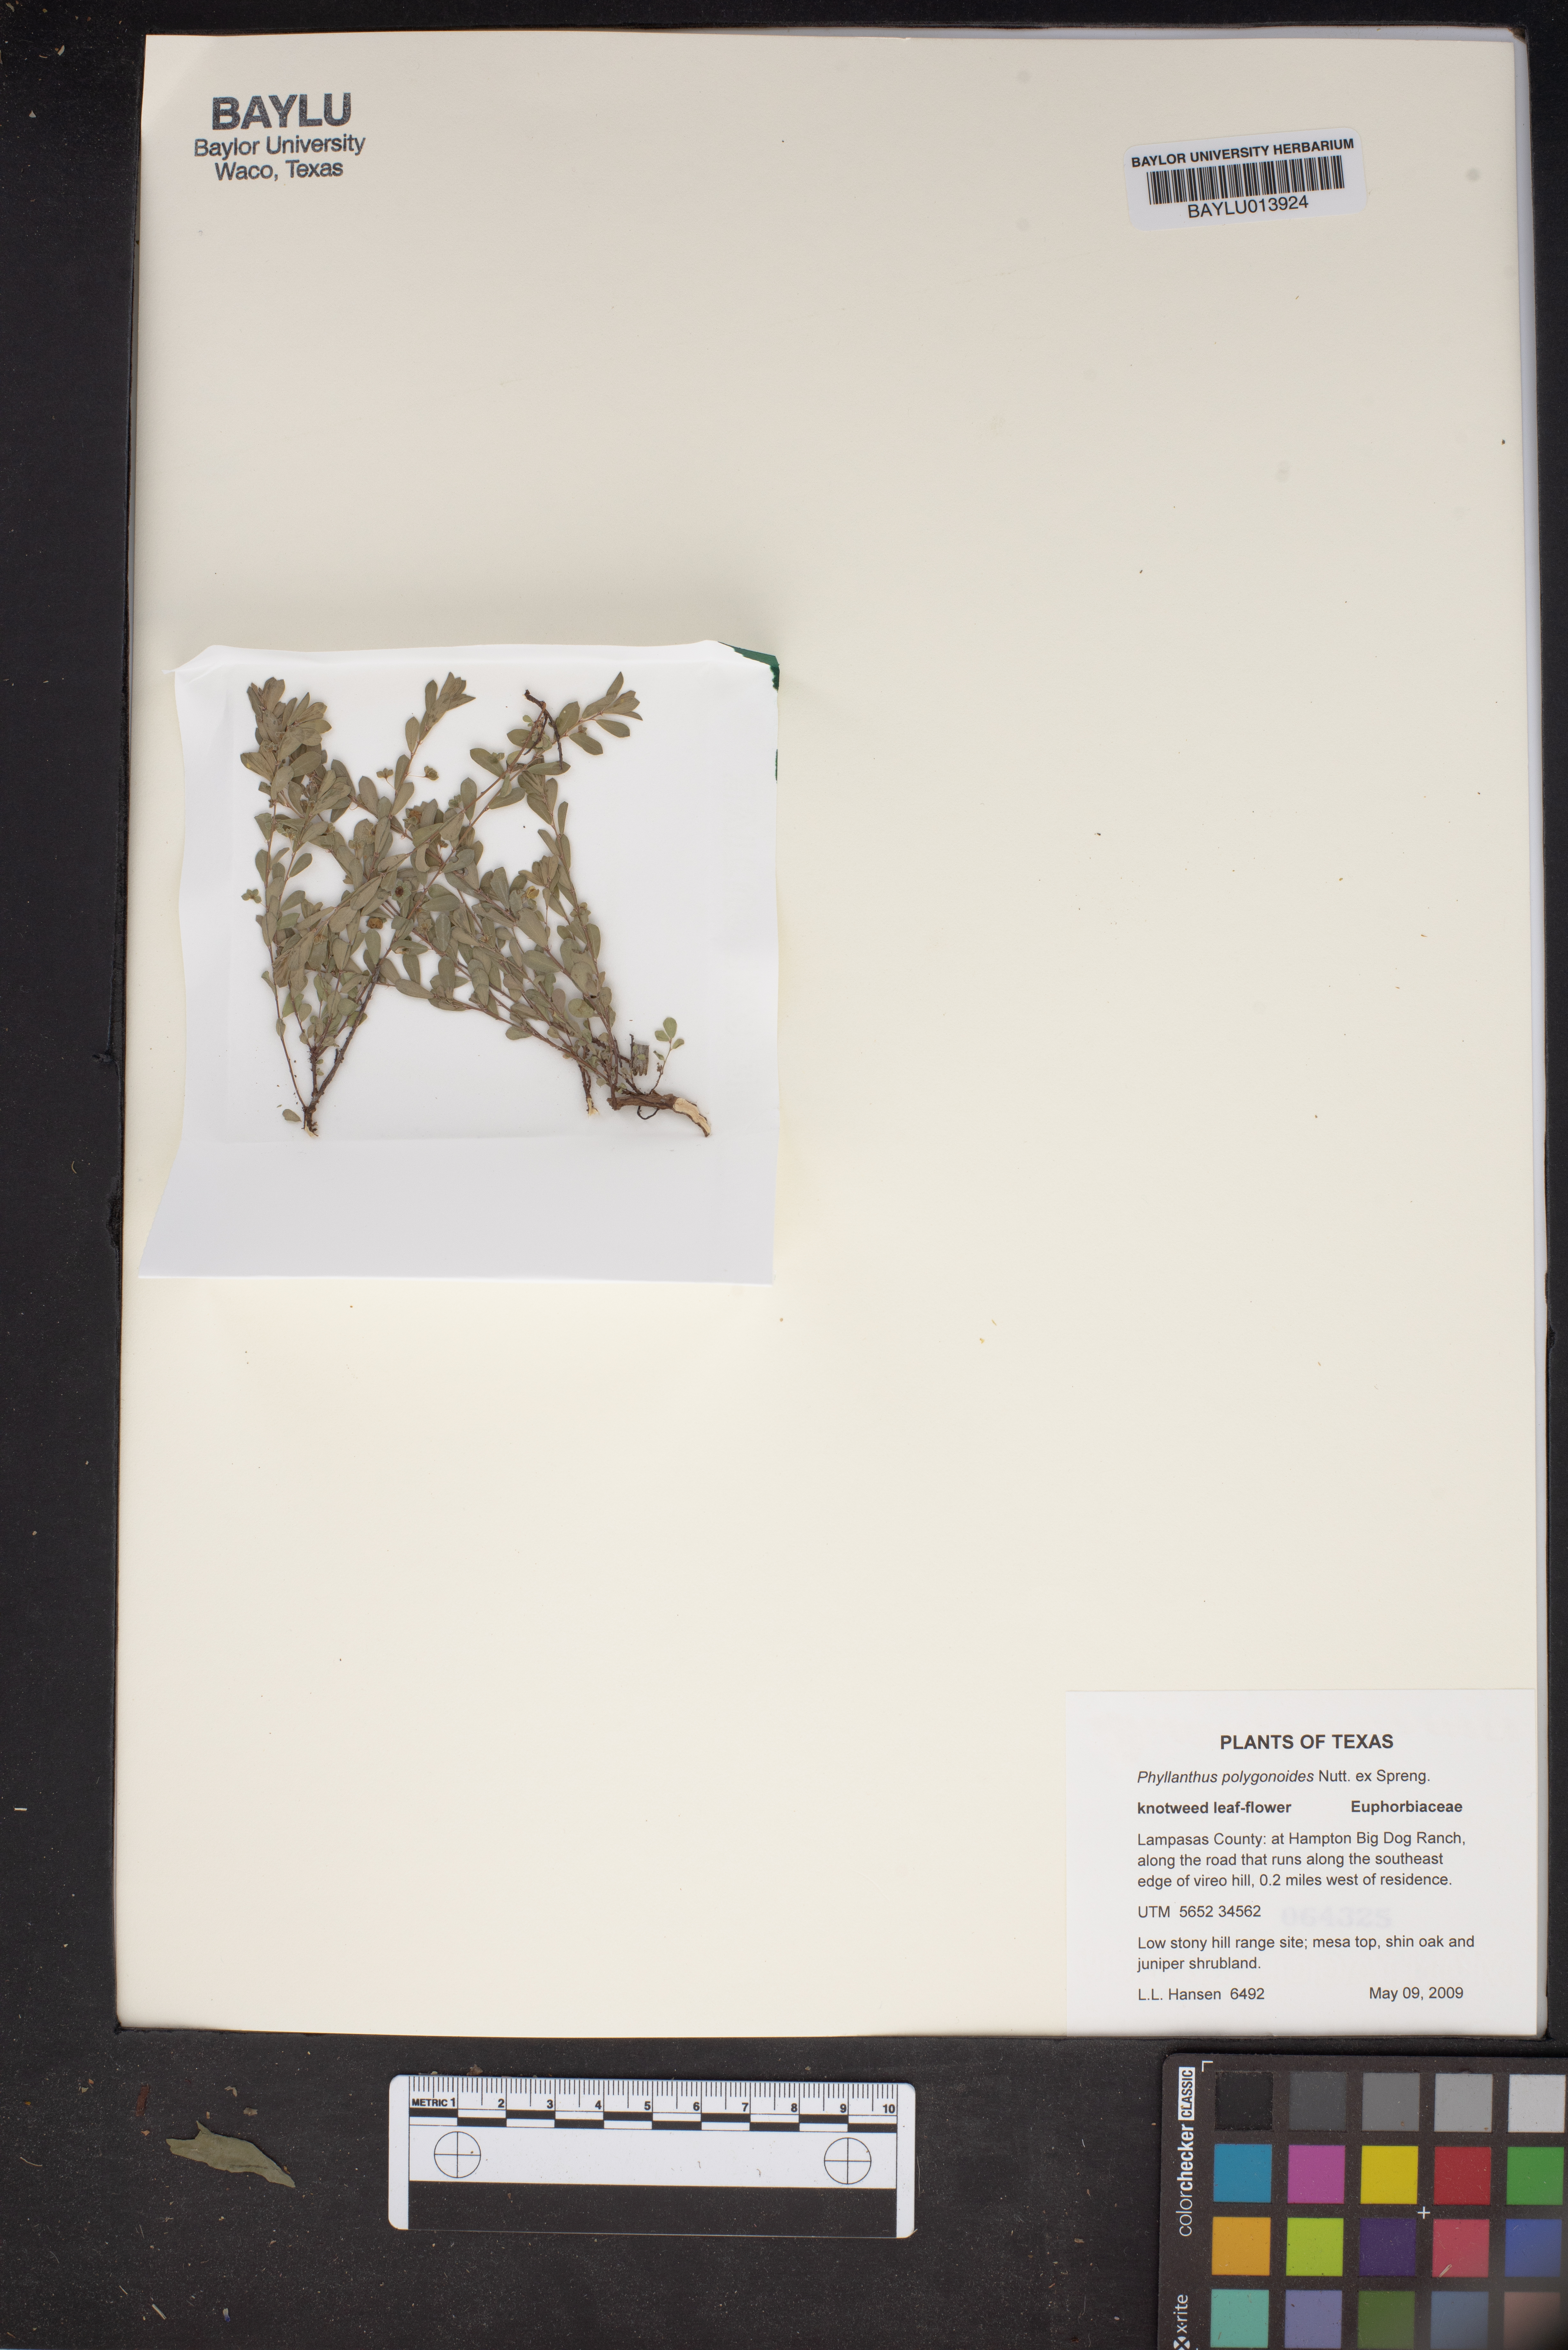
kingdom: Plantae
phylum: Tracheophyta
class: Magnoliopsida
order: Malpighiales
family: Phyllanthaceae
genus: Phyllanthus
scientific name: Phyllanthus polygonoides
